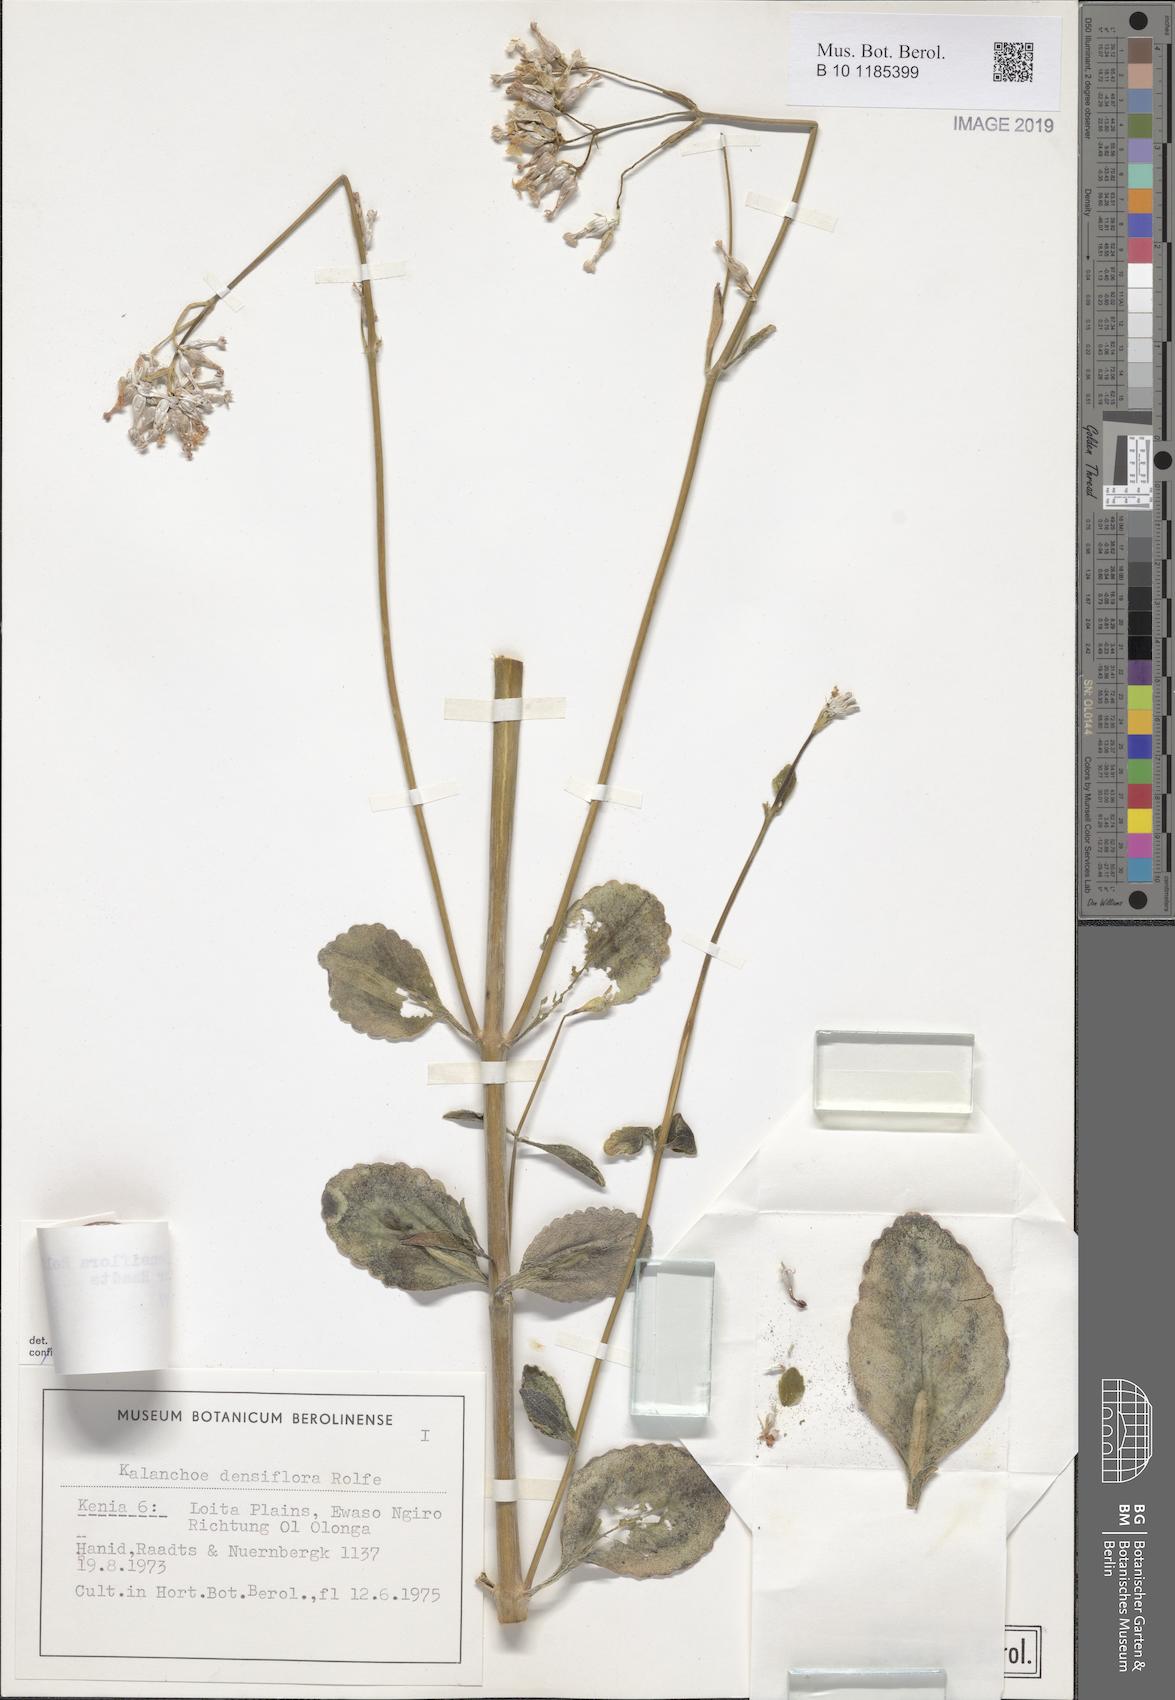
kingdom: Plantae
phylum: Tracheophyta
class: Magnoliopsida
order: Saxifragales
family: Crassulaceae
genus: Kalanchoe
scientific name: Kalanchoe densiflora
